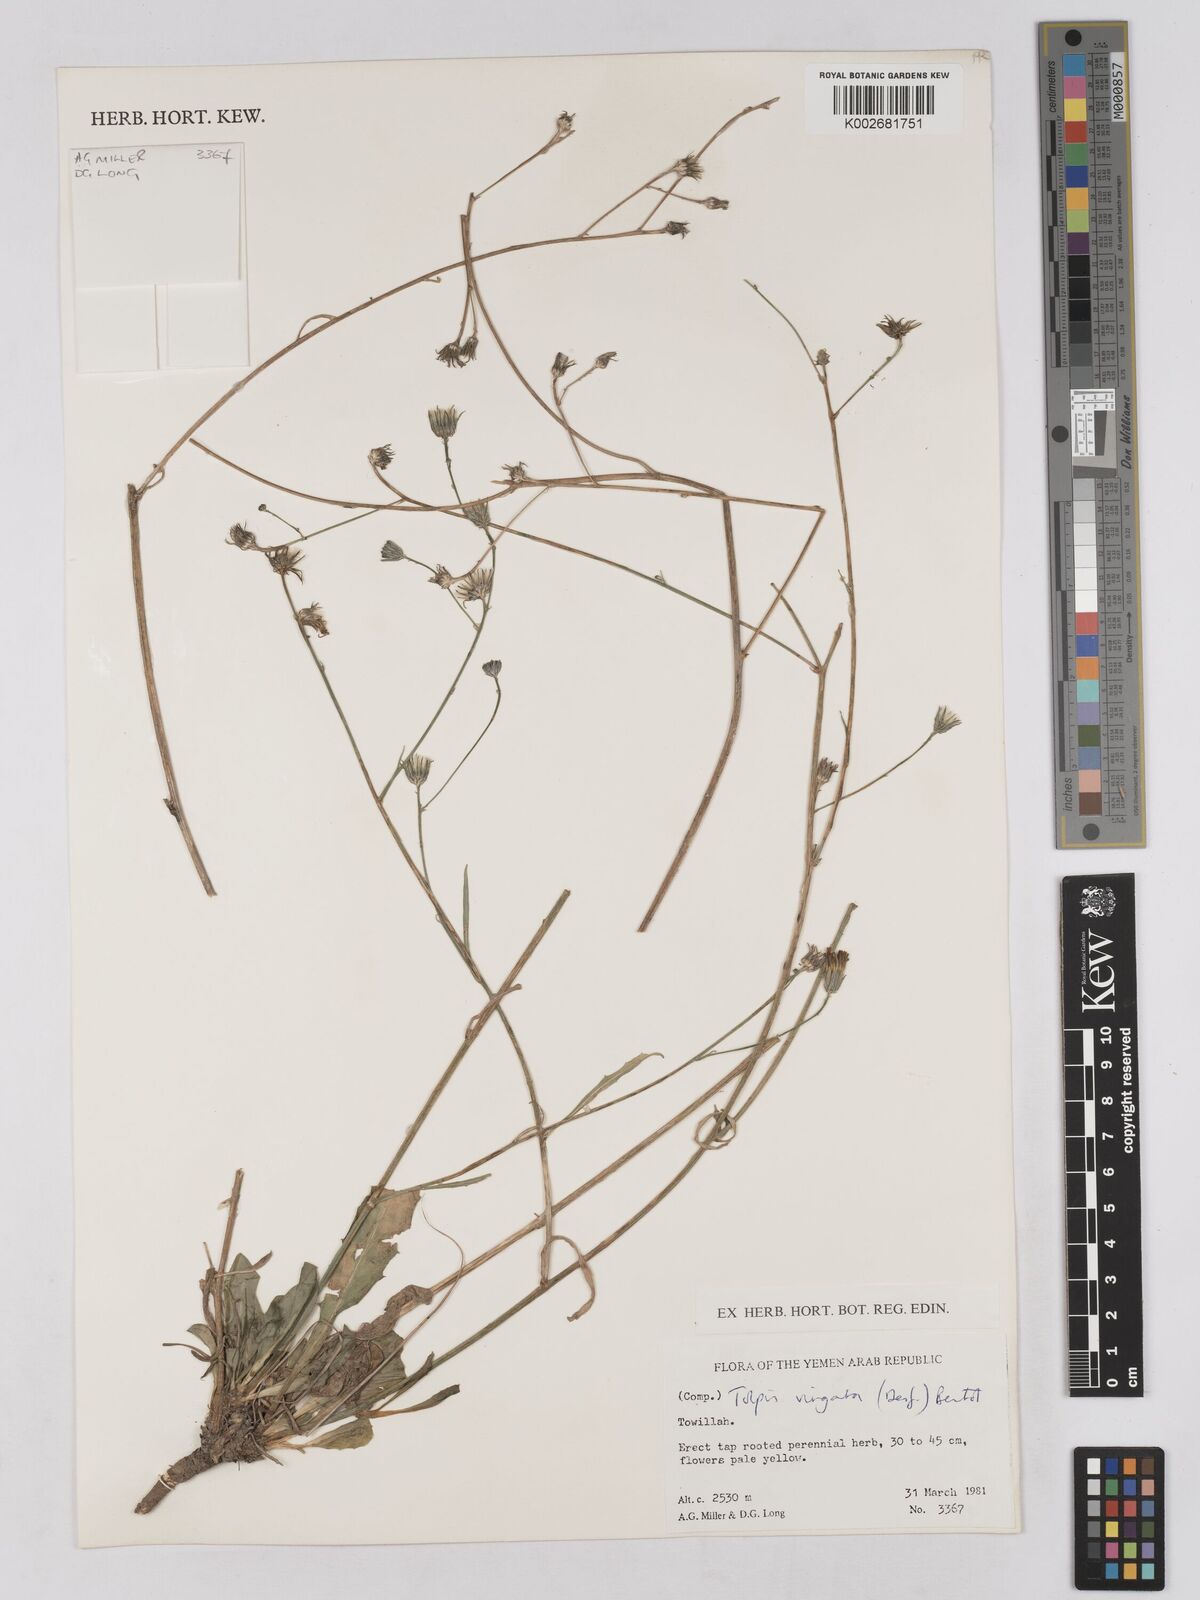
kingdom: Plantae
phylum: Tracheophyta
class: Magnoliopsida
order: Asterales
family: Asteraceae
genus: Tolpis
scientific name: Tolpis virgata
